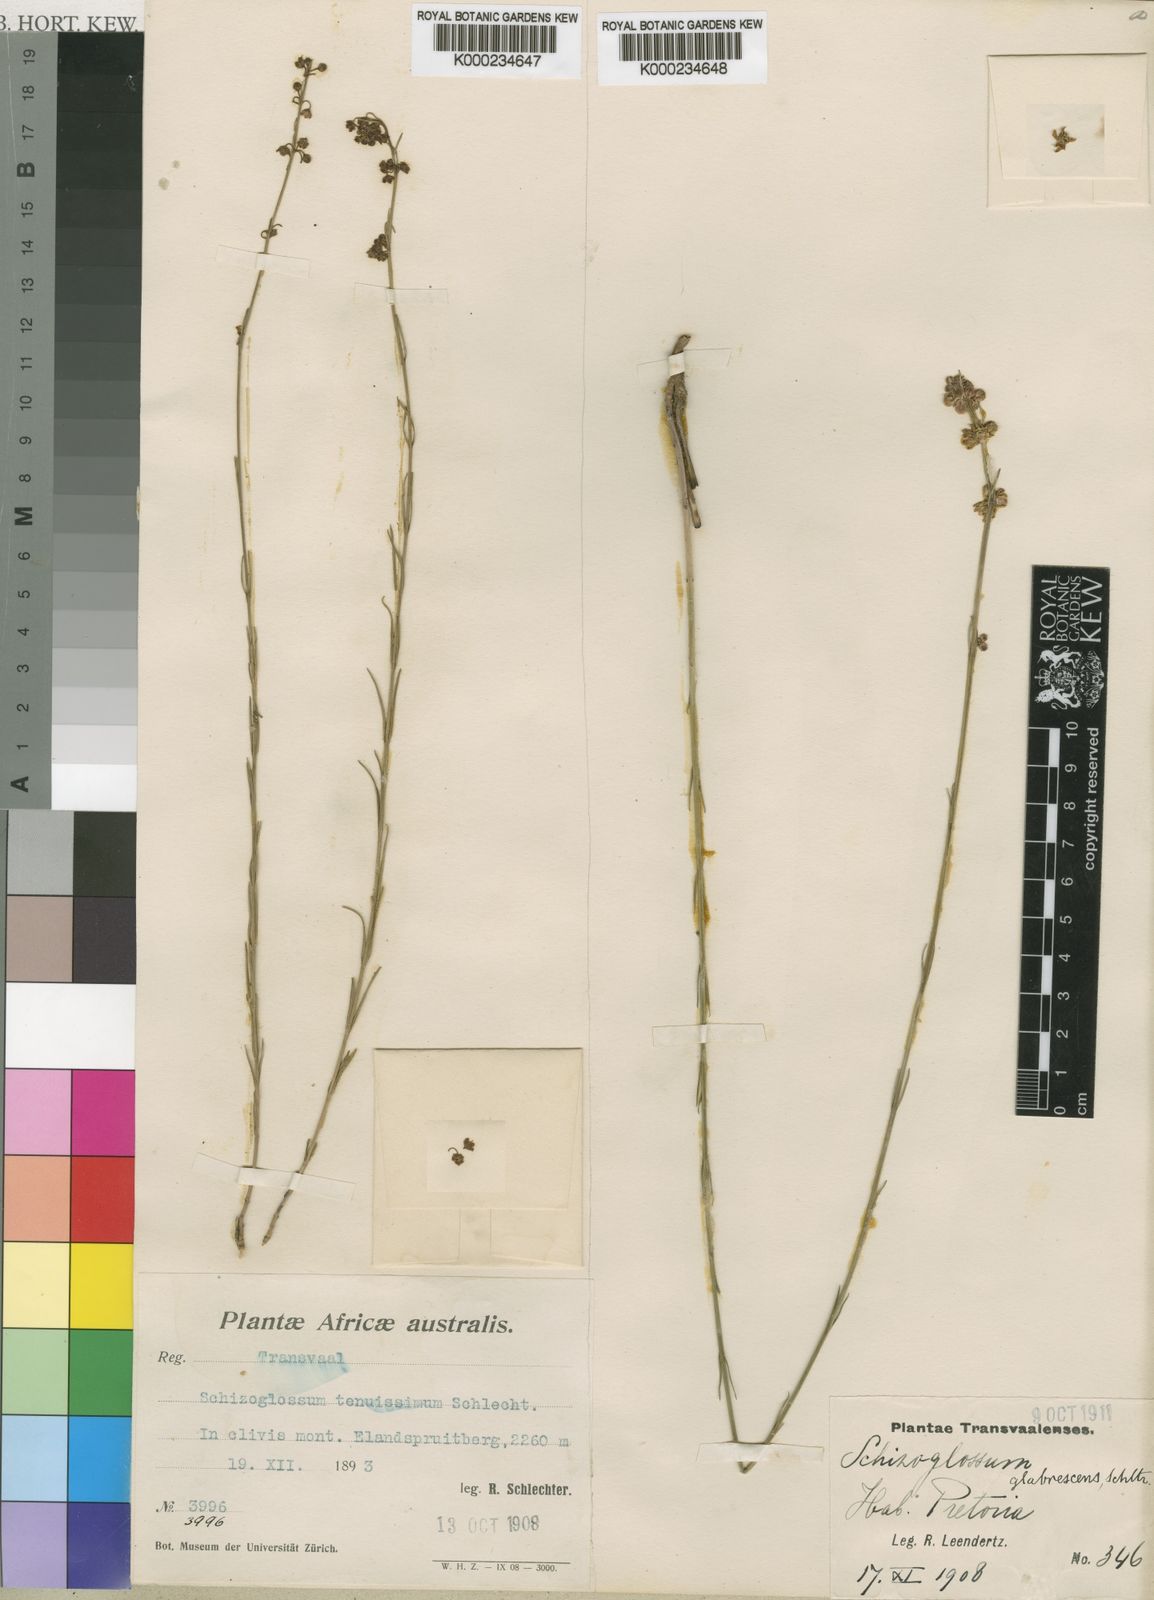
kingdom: Plantae
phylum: Tracheophyta
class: Magnoliopsida
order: Gentianales
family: Apocynaceae
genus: Aspidoglossum
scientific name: Aspidoglossum glabrescens
